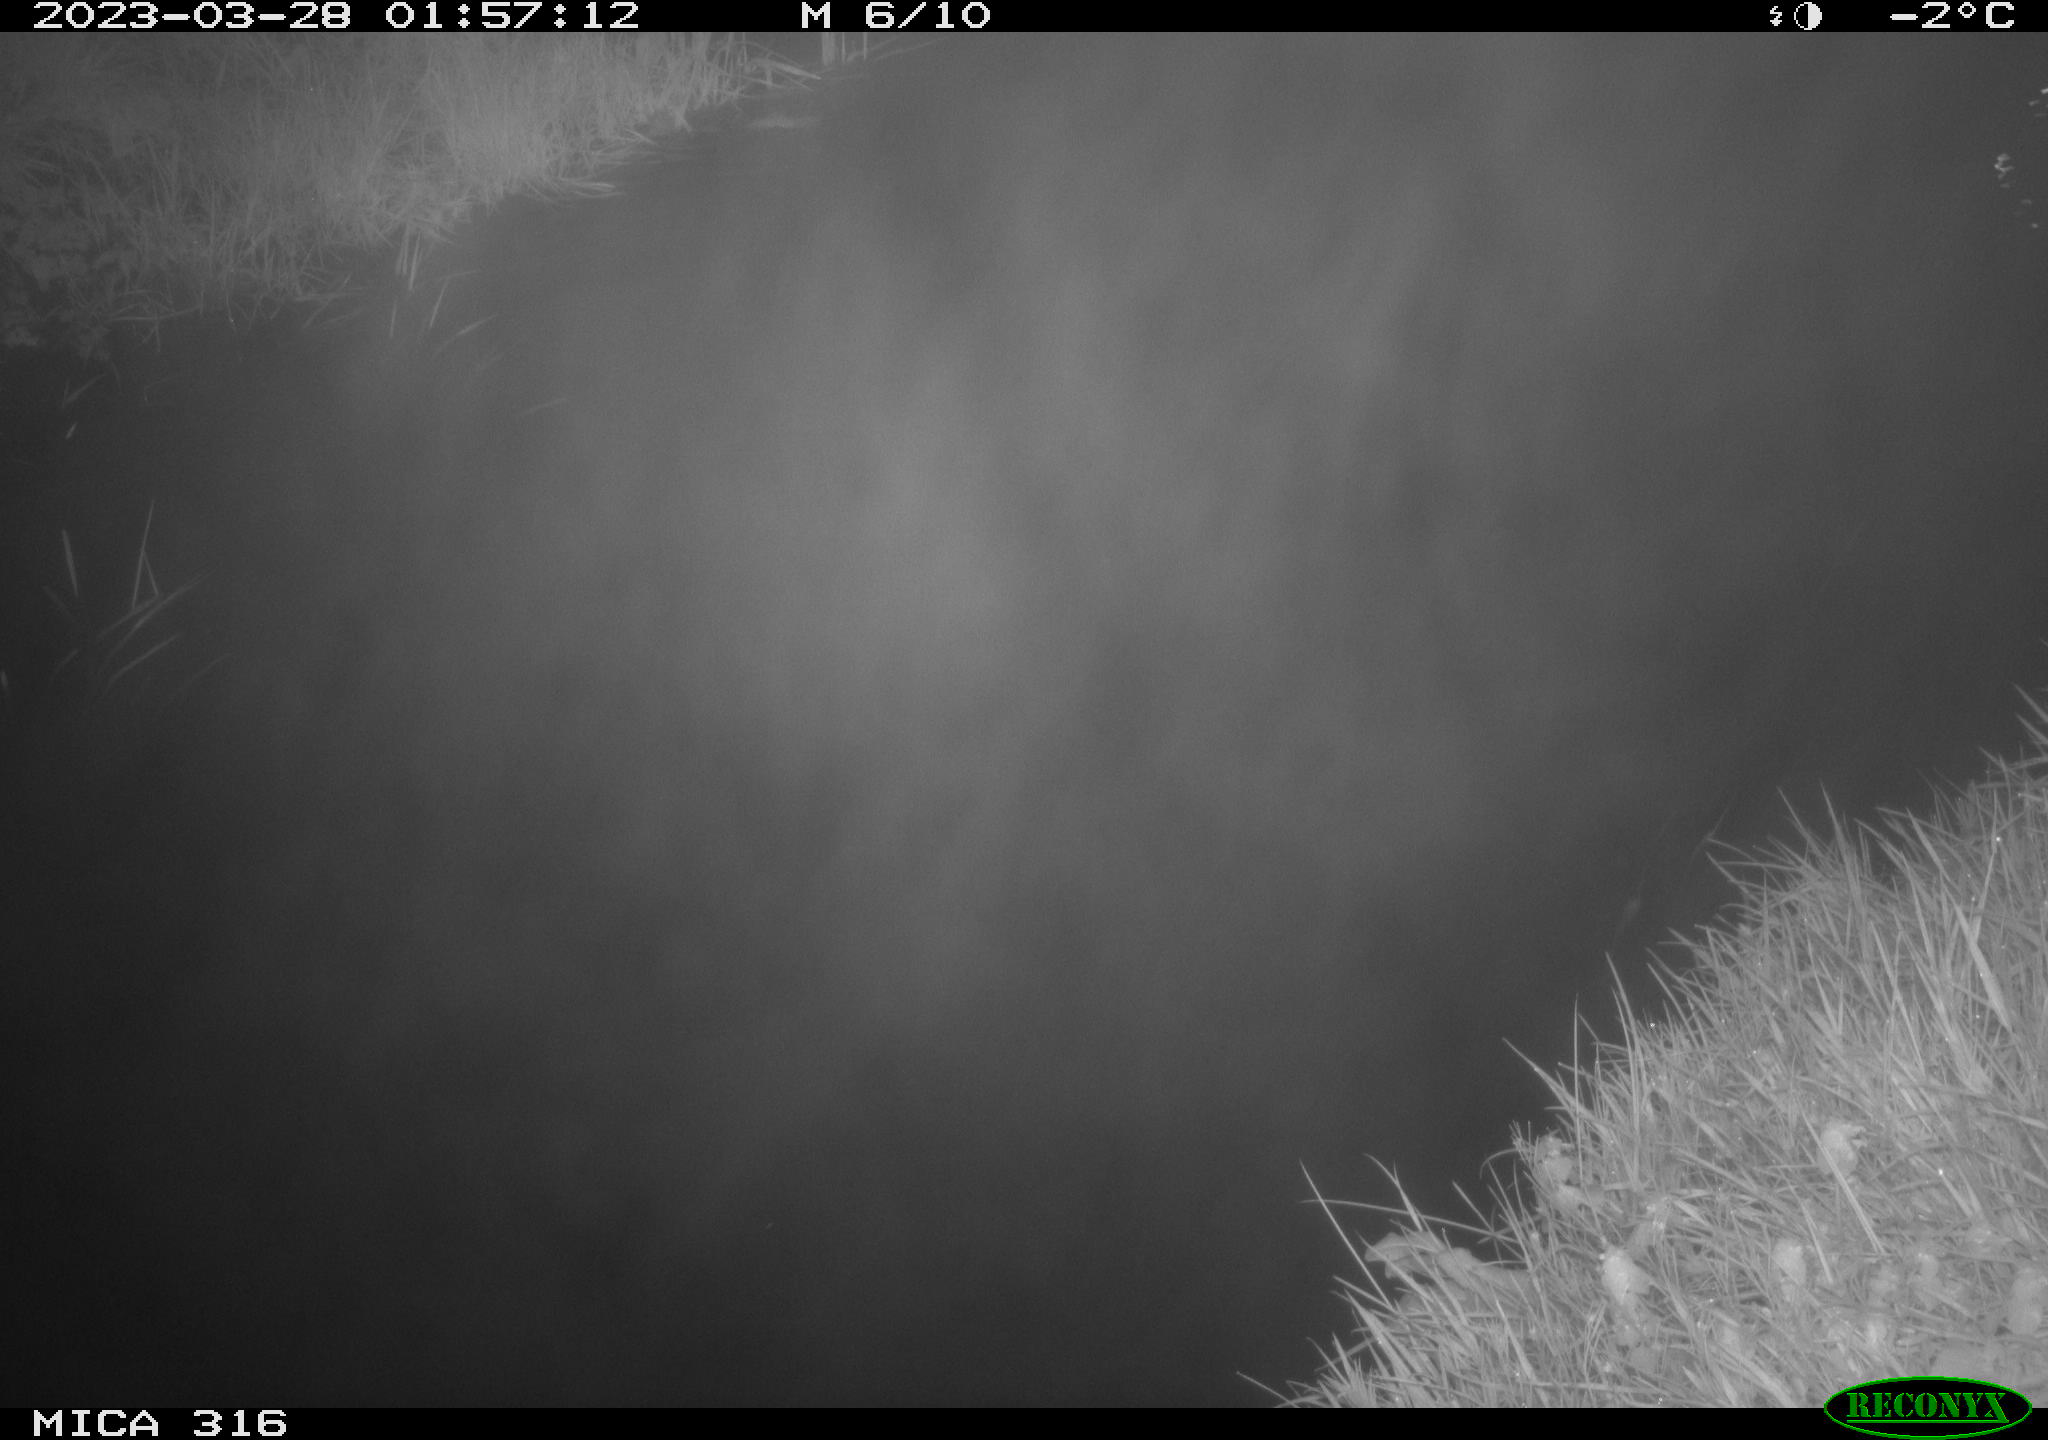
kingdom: Animalia
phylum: Chordata
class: Aves
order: Anseriformes
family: Anatidae
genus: Anas
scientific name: Anas
